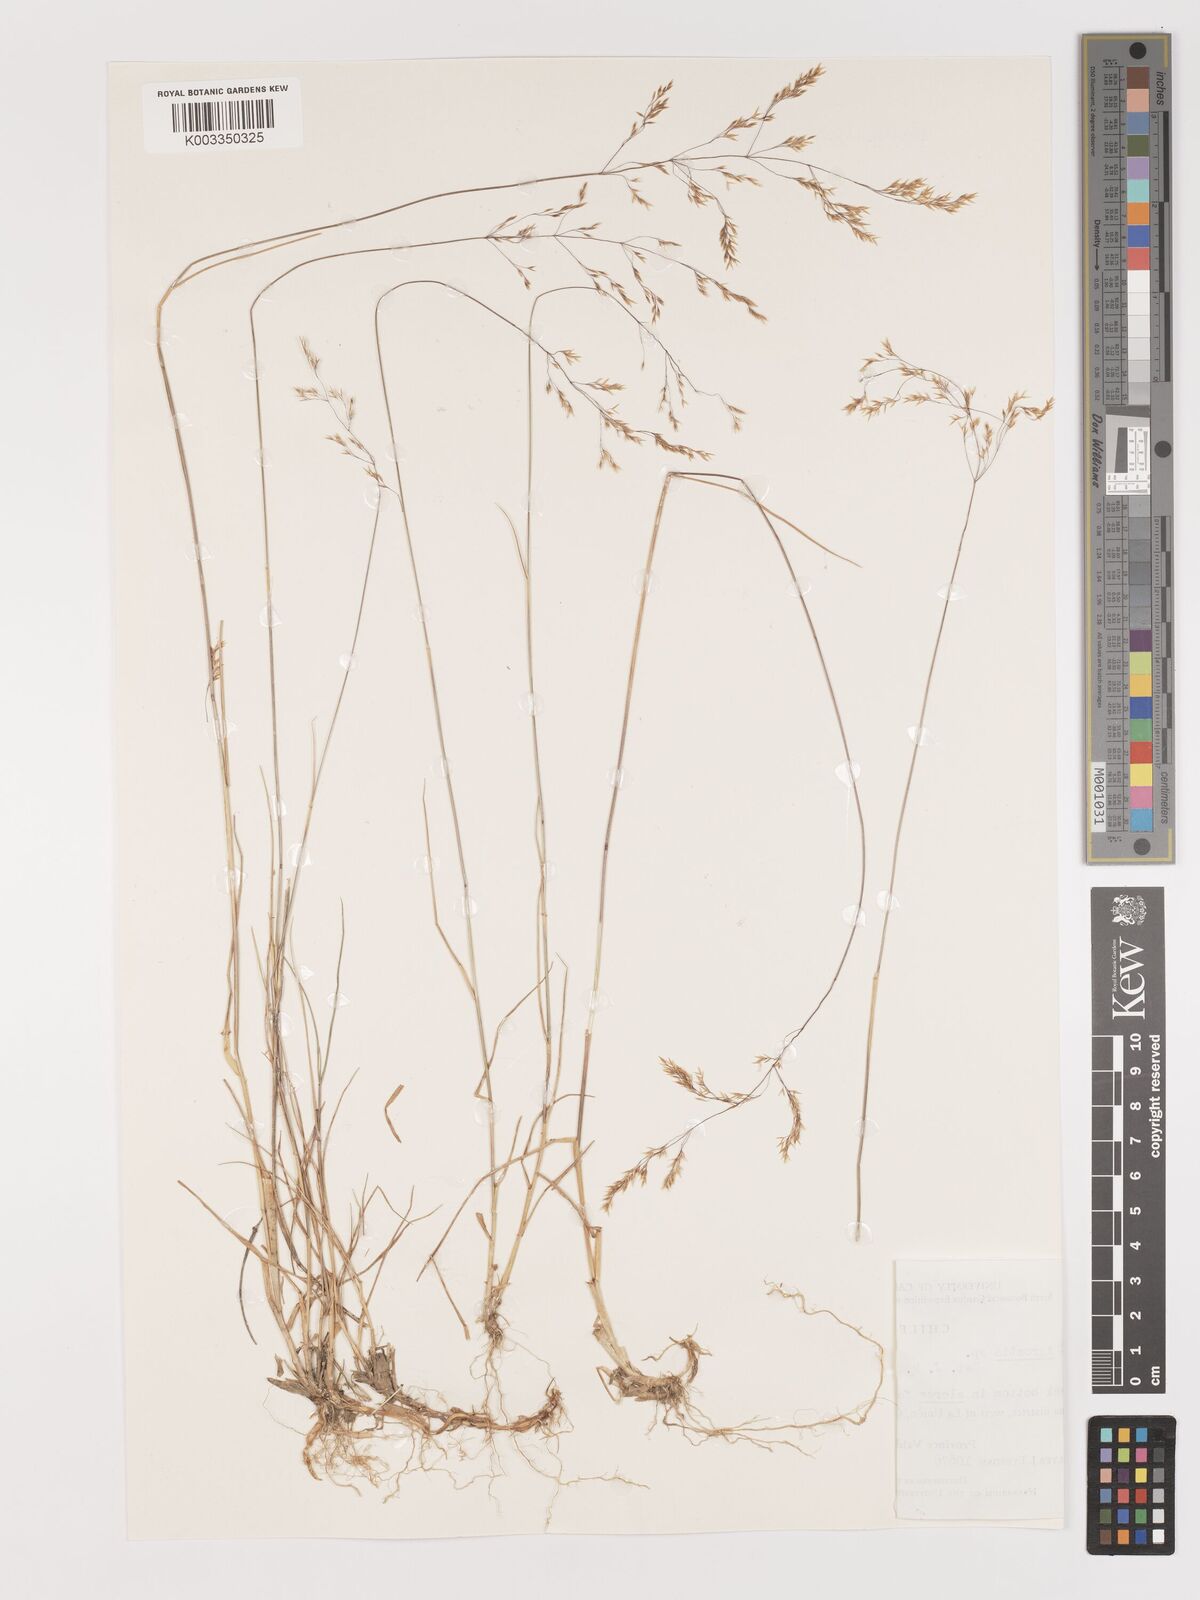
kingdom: Plantae
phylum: Tracheophyta
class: Liliopsida
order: Poales
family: Poaceae
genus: Agrostis
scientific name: Agrostis
